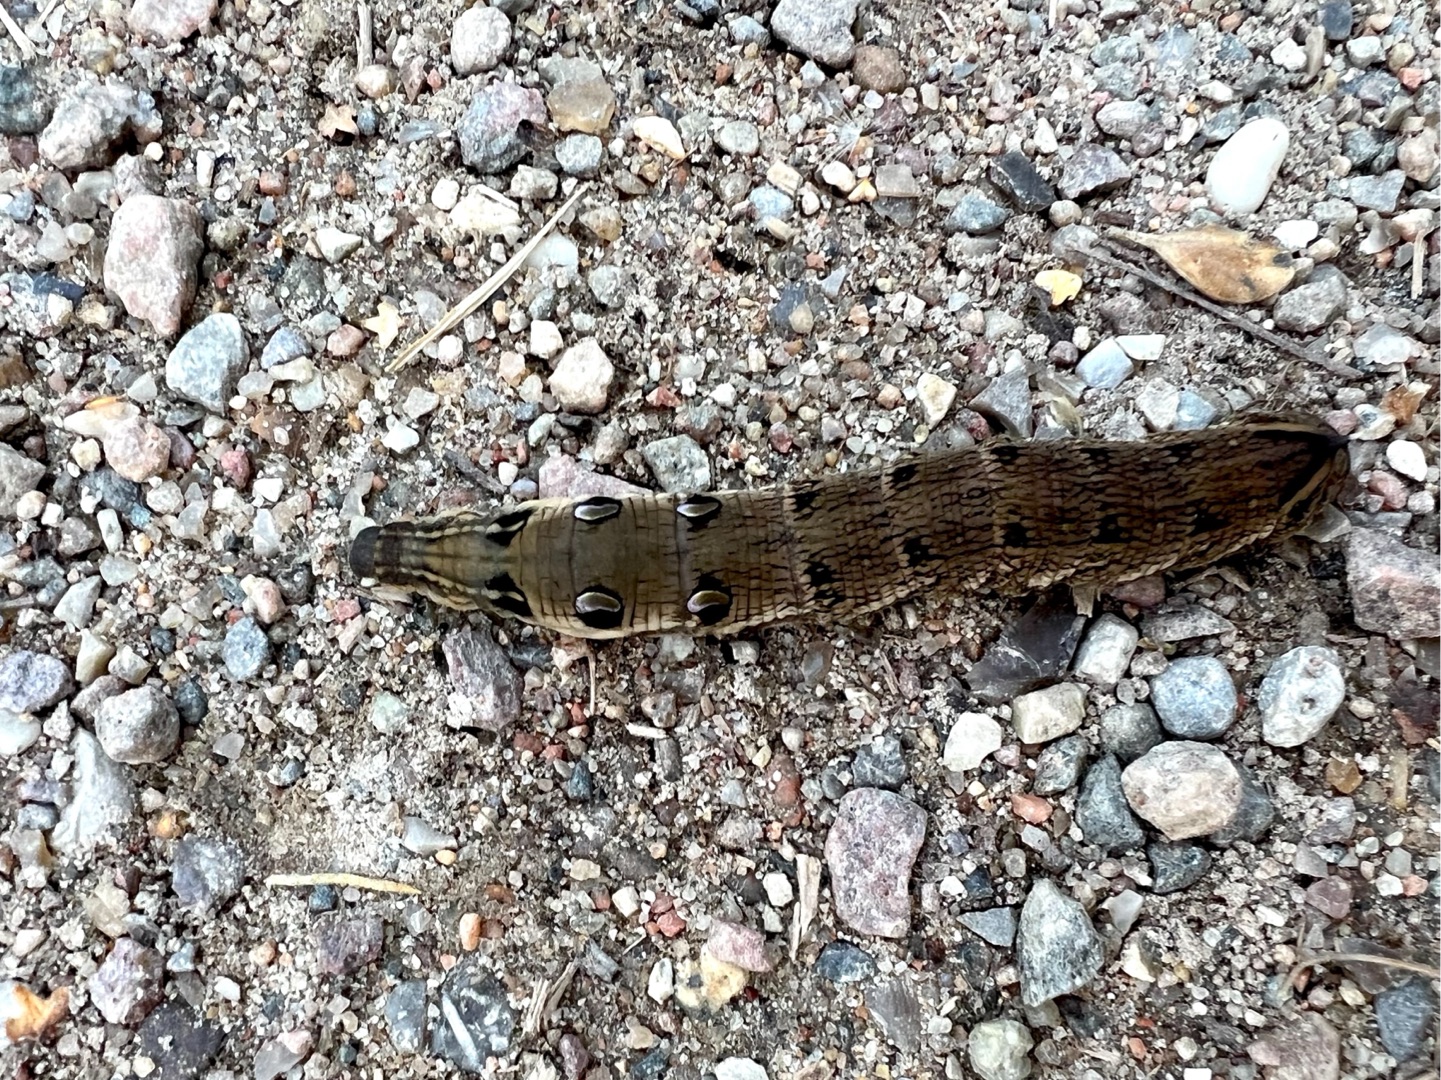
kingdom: Animalia
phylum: Arthropoda
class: Insecta
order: Lepidoptera
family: Sphingidae
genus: Deilephila
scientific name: Deilephila elpenor
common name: Dueurtsværmer
